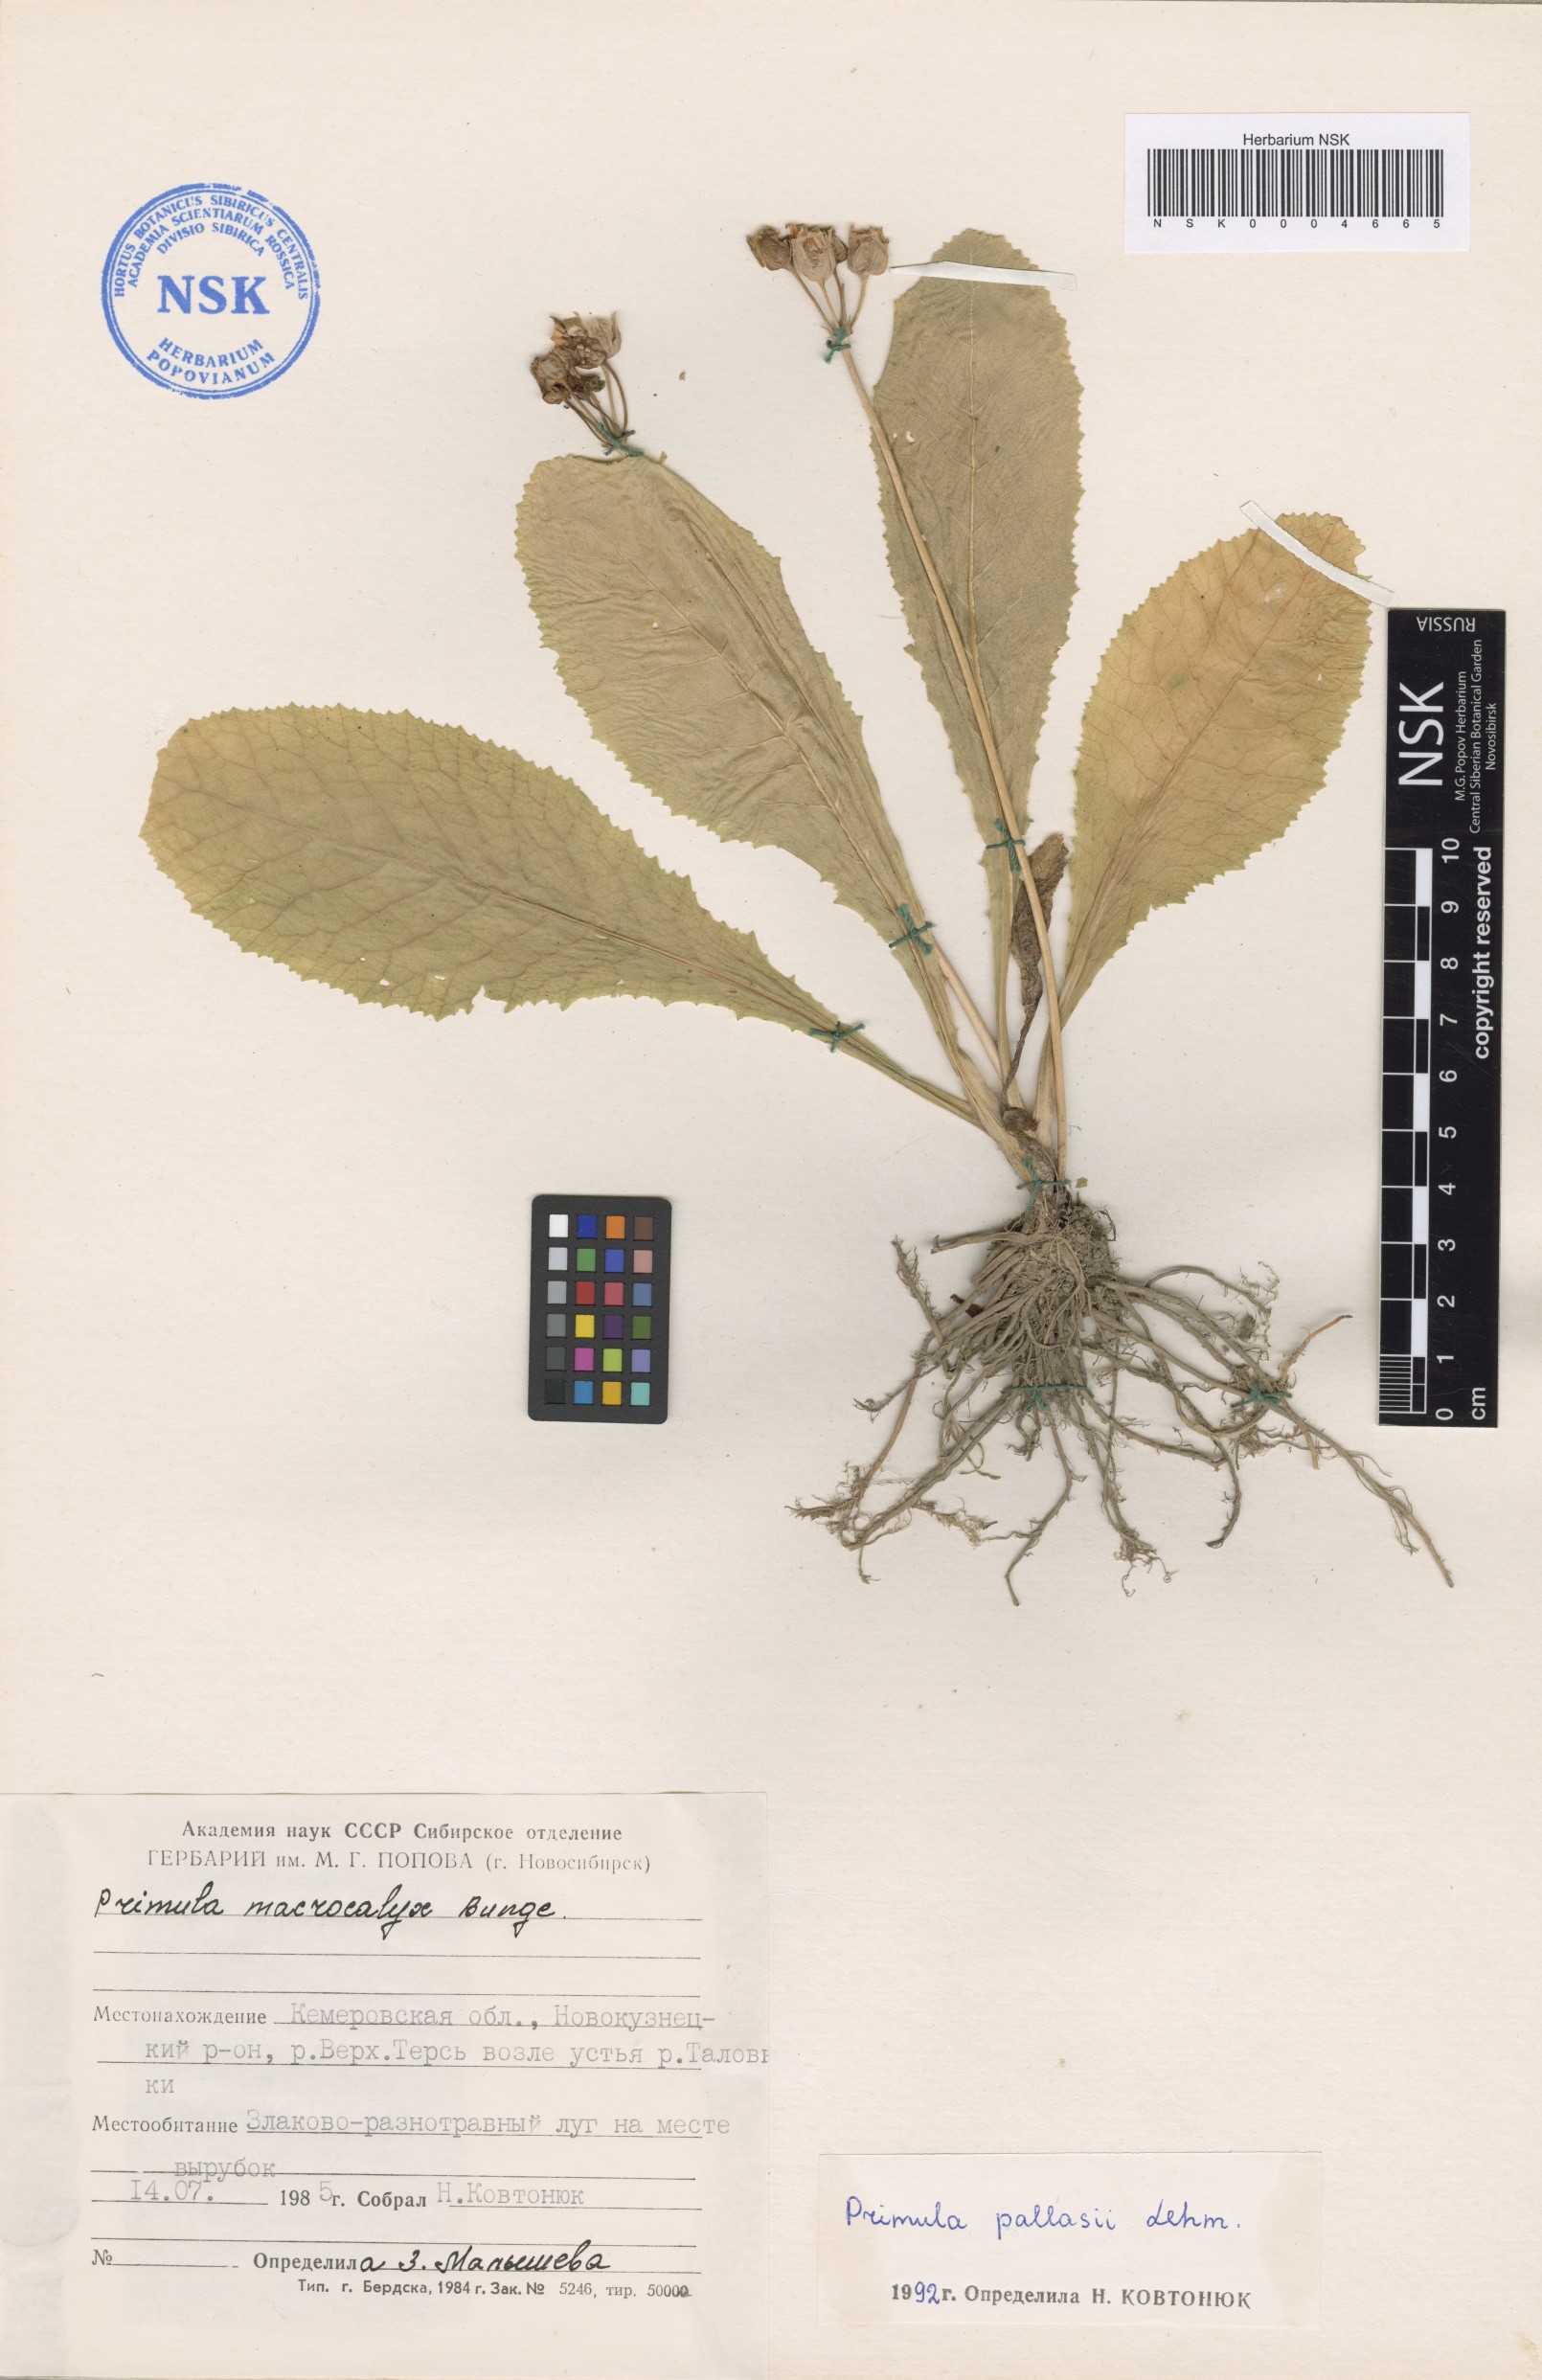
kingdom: Plantae
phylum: Tracheophyta
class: Magnoliopsida
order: Ericales
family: Primulaceae
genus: Primula
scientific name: Primula elatior
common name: Oxlip
